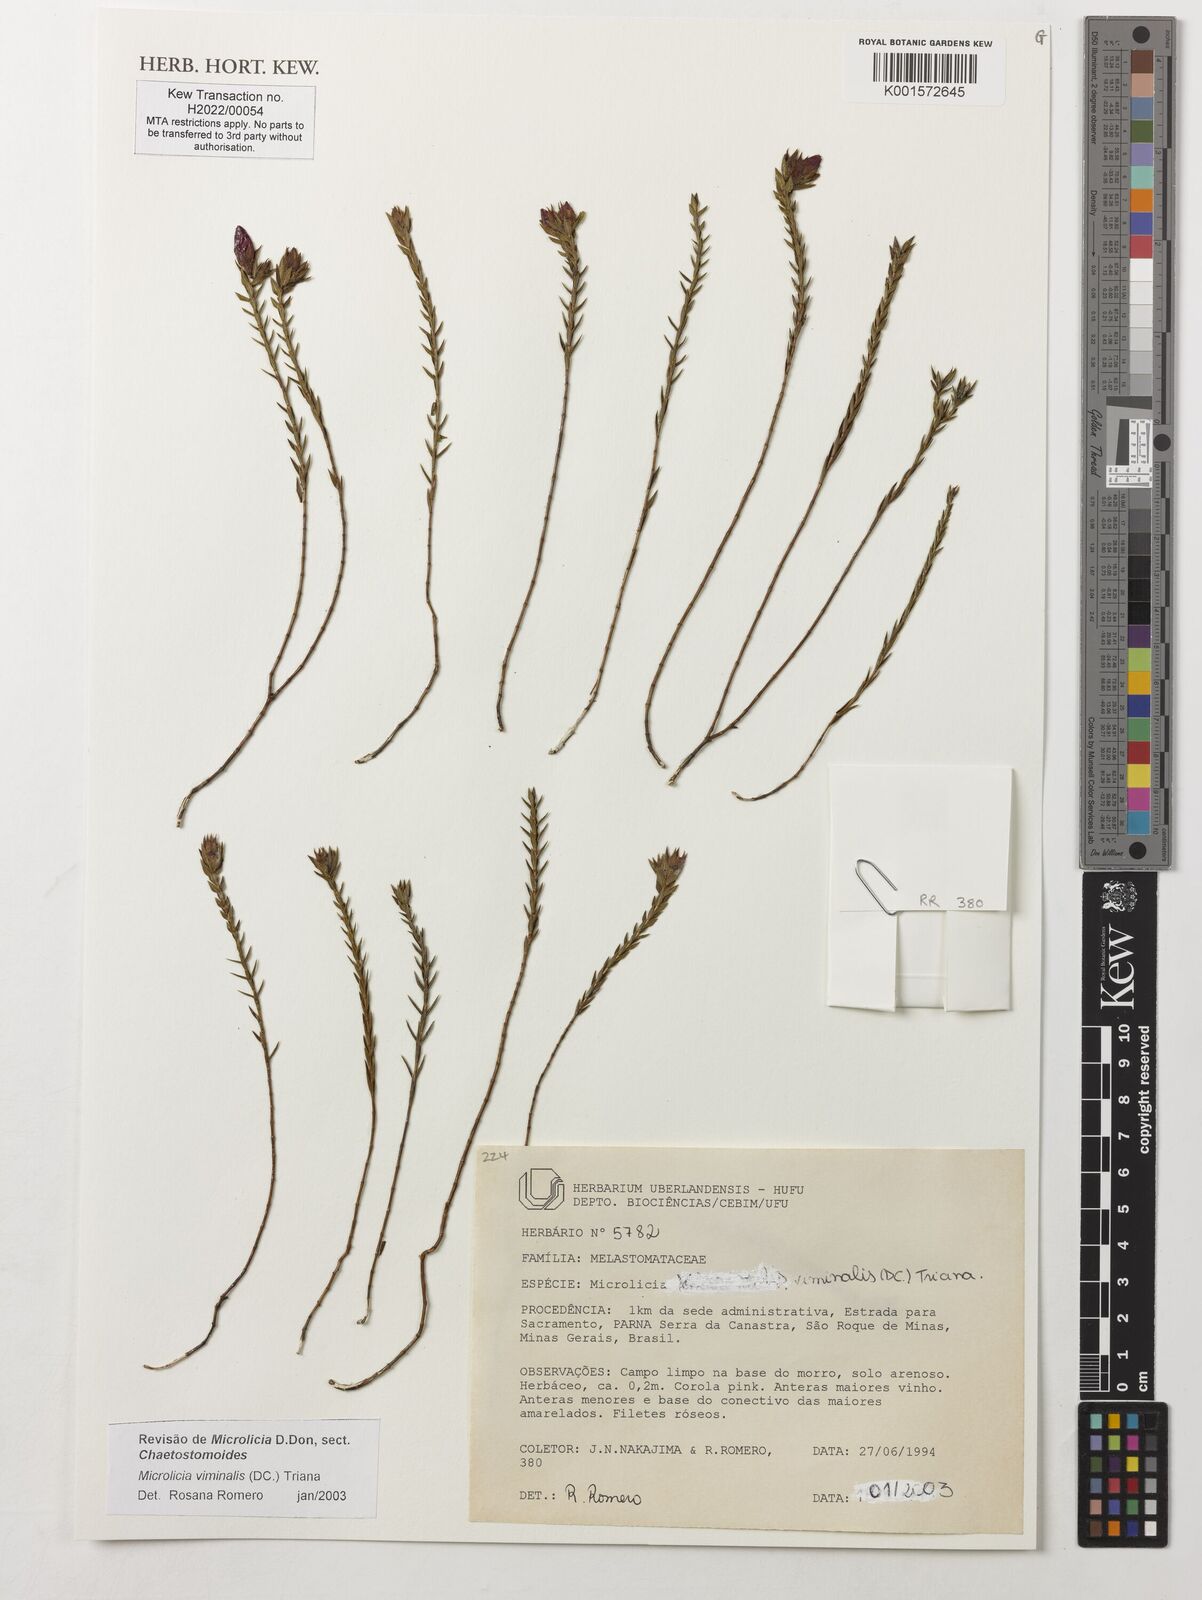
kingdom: Plantae
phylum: Tracheophyta
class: Magnoliopsida
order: Myrtales
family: Melastomataceae
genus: Microlicia
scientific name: Microlicia viminalis
